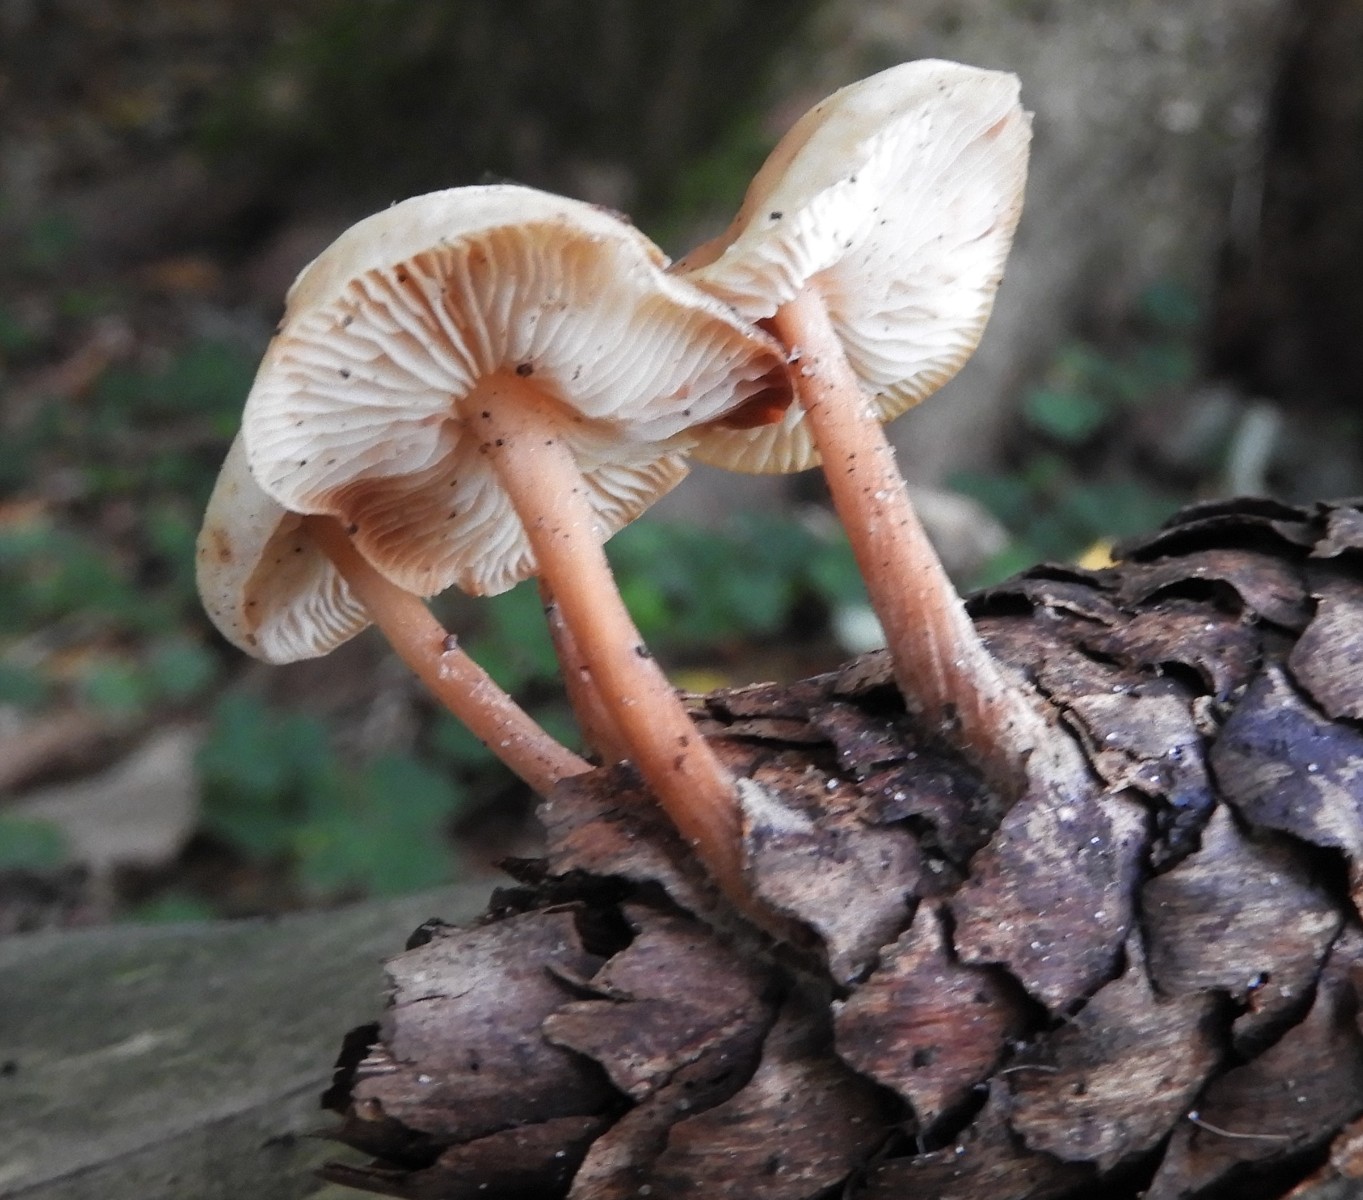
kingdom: Fungi
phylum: Basidiomycota
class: Agaricomycetes
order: Agaricales
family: Omphalotaceae
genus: Gymnopus
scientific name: Gymnopus
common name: fladhat
